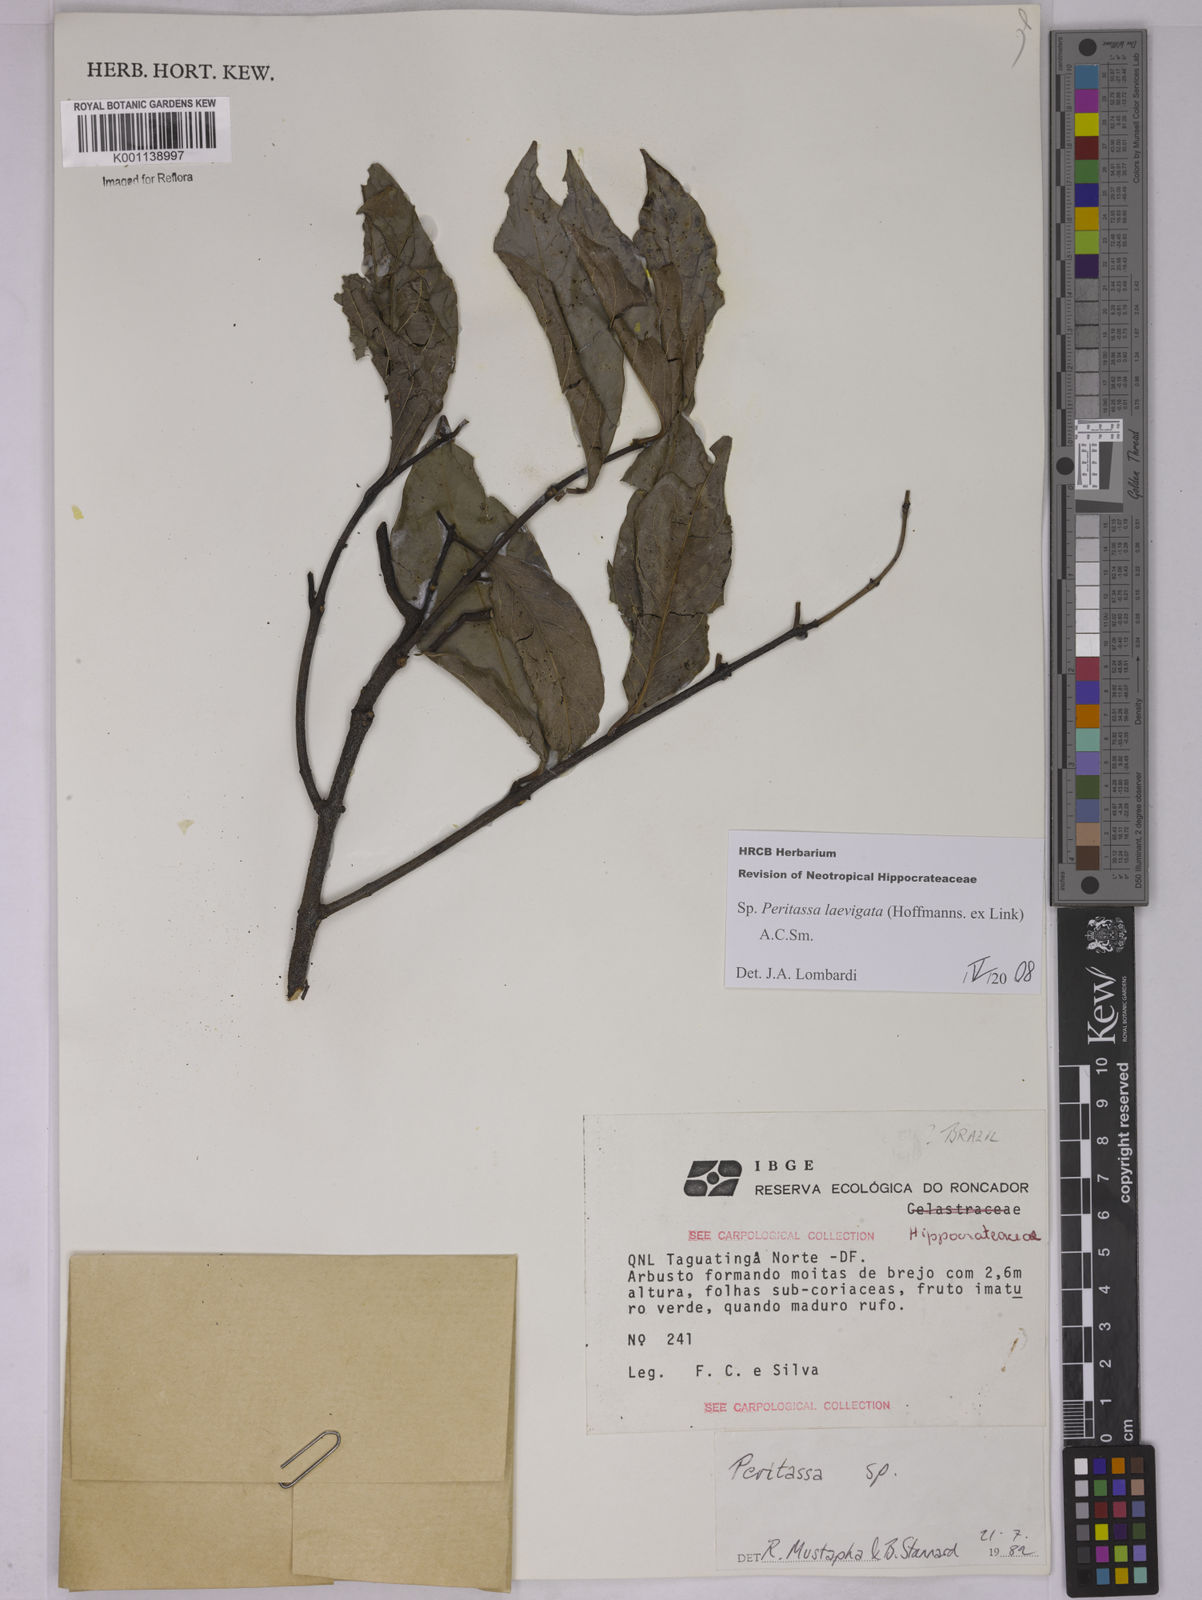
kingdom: Plantae
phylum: Tracheophyta
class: Magnoliopsida
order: Celastrales
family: Celastraceae
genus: Peritassa
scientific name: Peritassa laevigata
